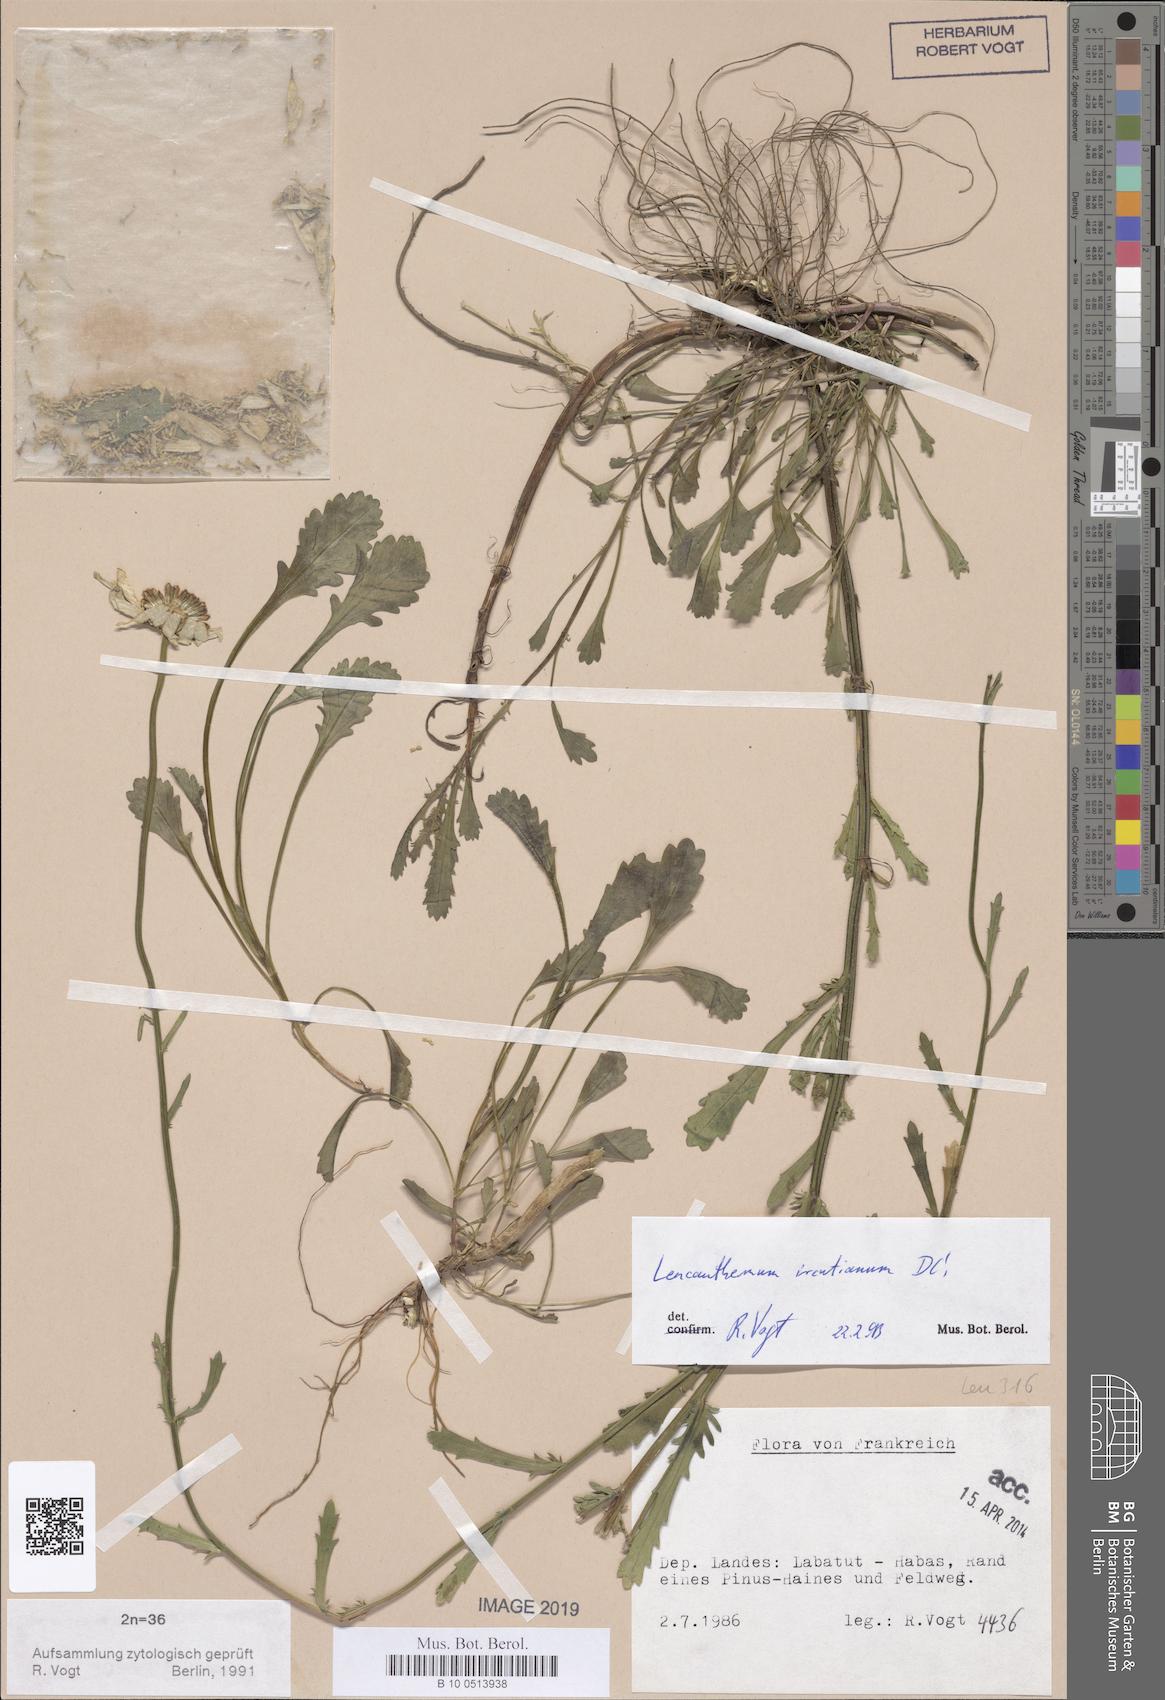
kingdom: Plantae
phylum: Tracheophyta
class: Magnoliopsida
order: Asterales
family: Asteraceae
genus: Leucanthemum
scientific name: Leucanthemum ircutianum
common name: Daisy
